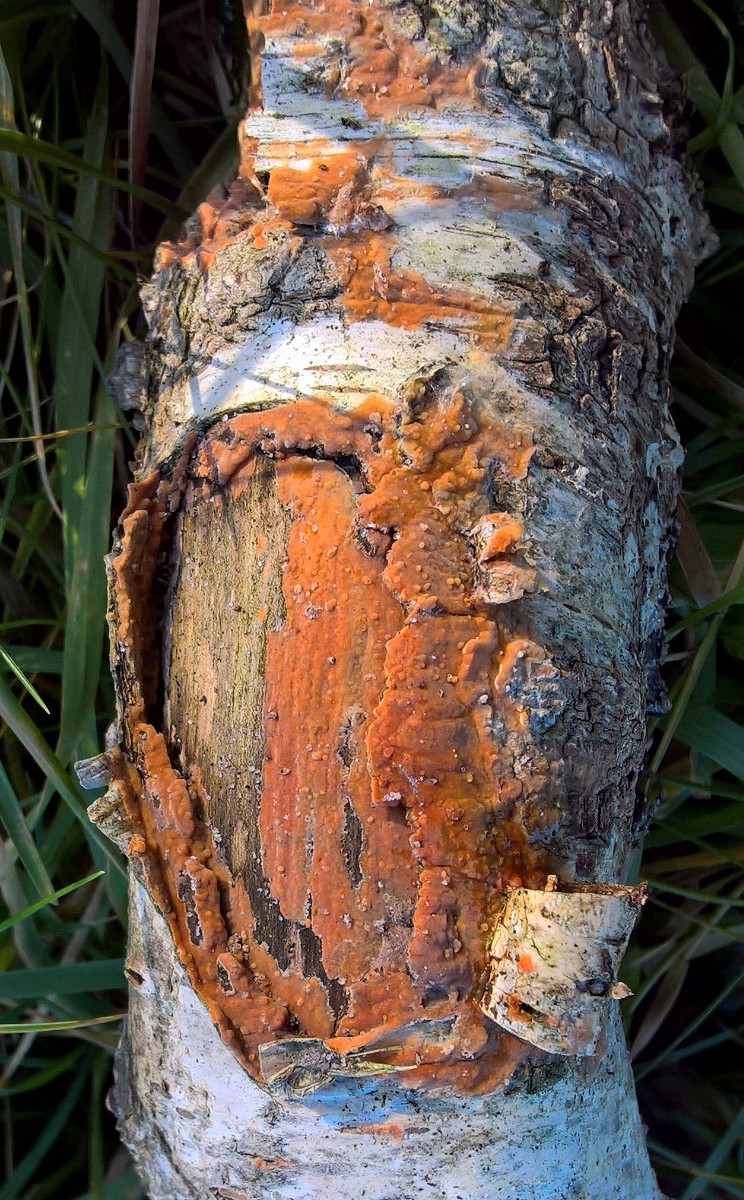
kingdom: Fungi
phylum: Basidiomycota
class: Agaricomycetes
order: Russulales
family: Peniophoraceae
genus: Peniophora
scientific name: Peniophora incarnata
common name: laksefarvet voksskind
